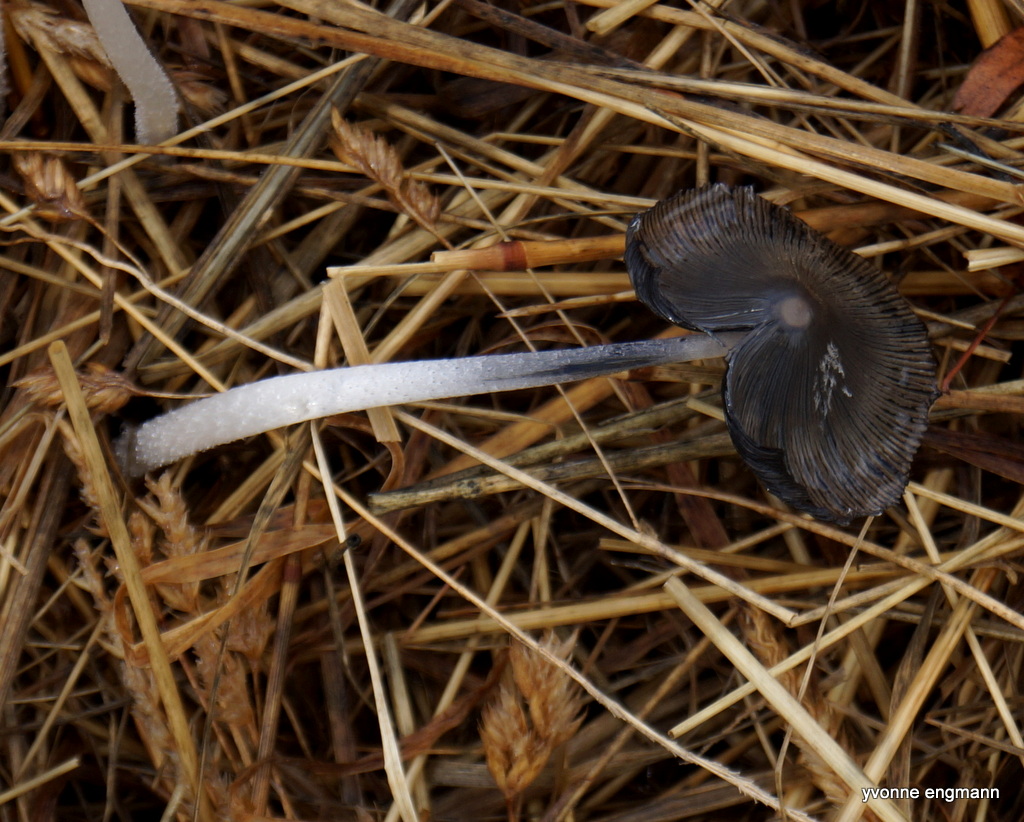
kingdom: Fungi
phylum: Basidiomycota
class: Agaricomycetes
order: Agaricales
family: Psathyrellaceae
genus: Coprinopsis
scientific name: Coprinopsis lagopus
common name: dunstokket blækhat
